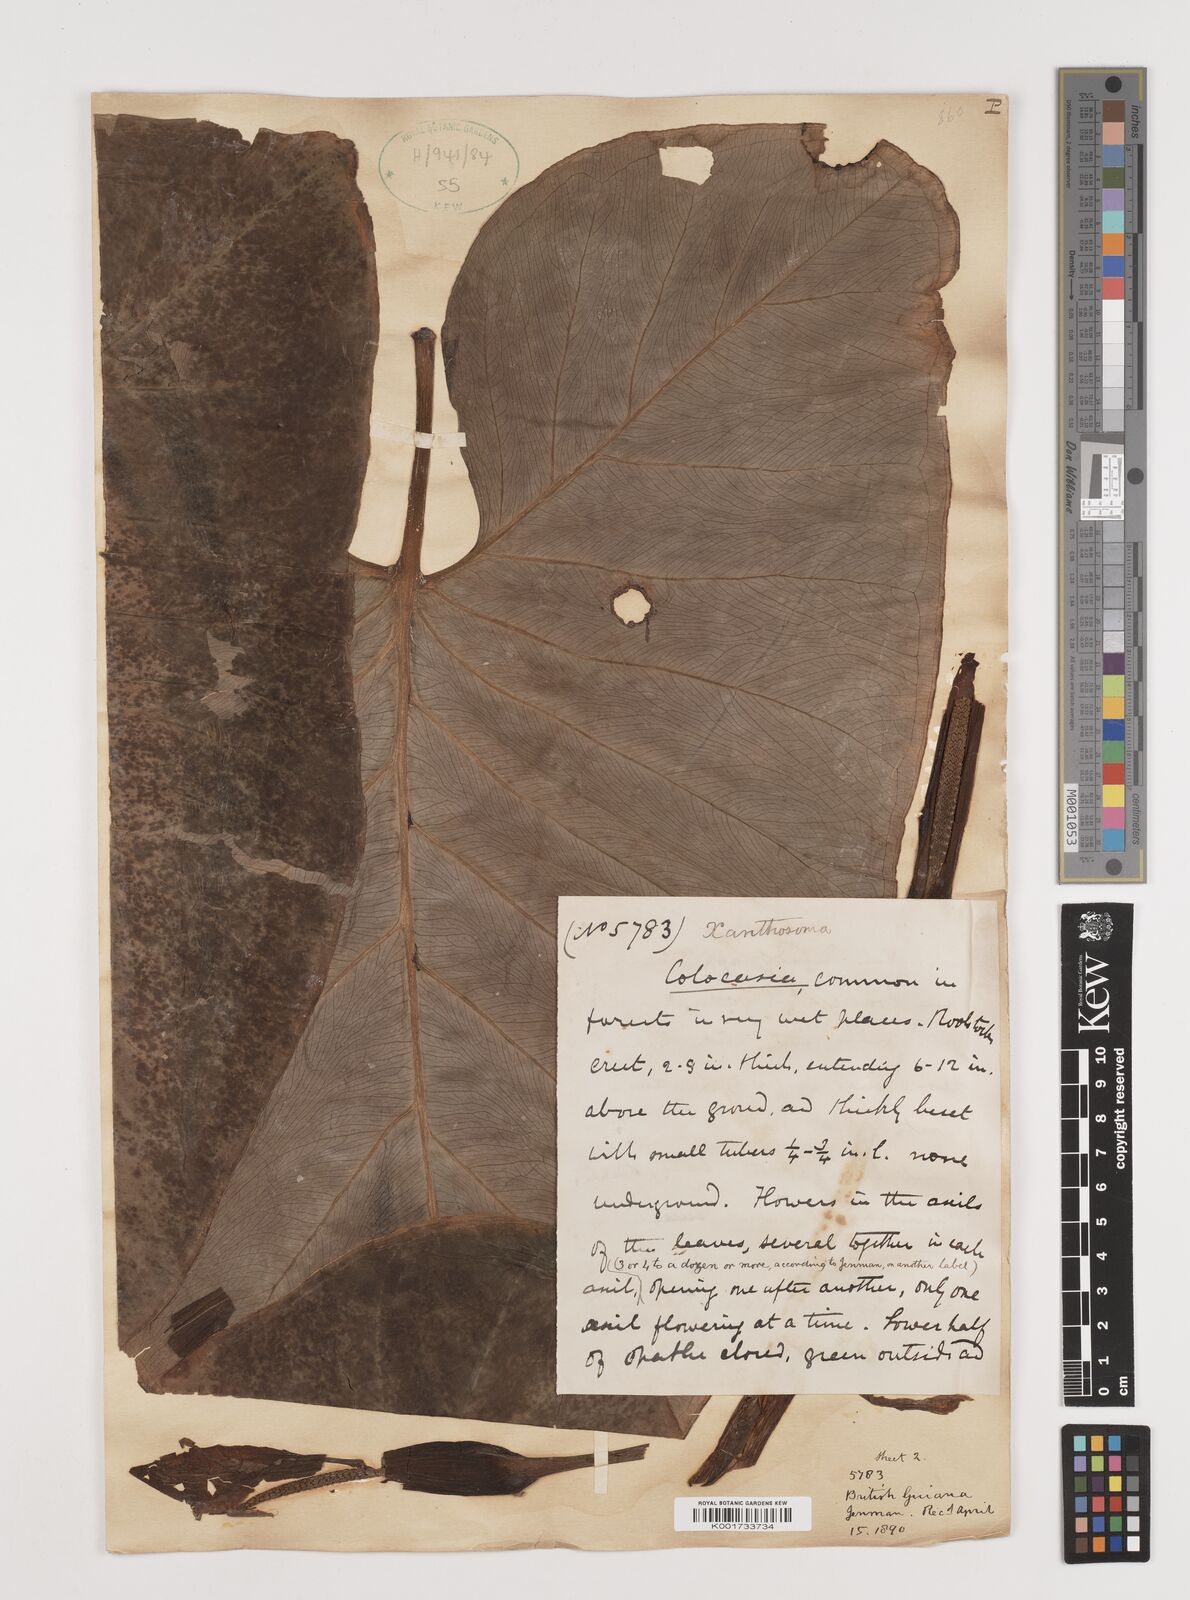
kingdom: Plantae
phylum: Tracheophyta
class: Liliopsida
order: Alismatales
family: Araceae
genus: Xanthosoma
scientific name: Xanthosoma
